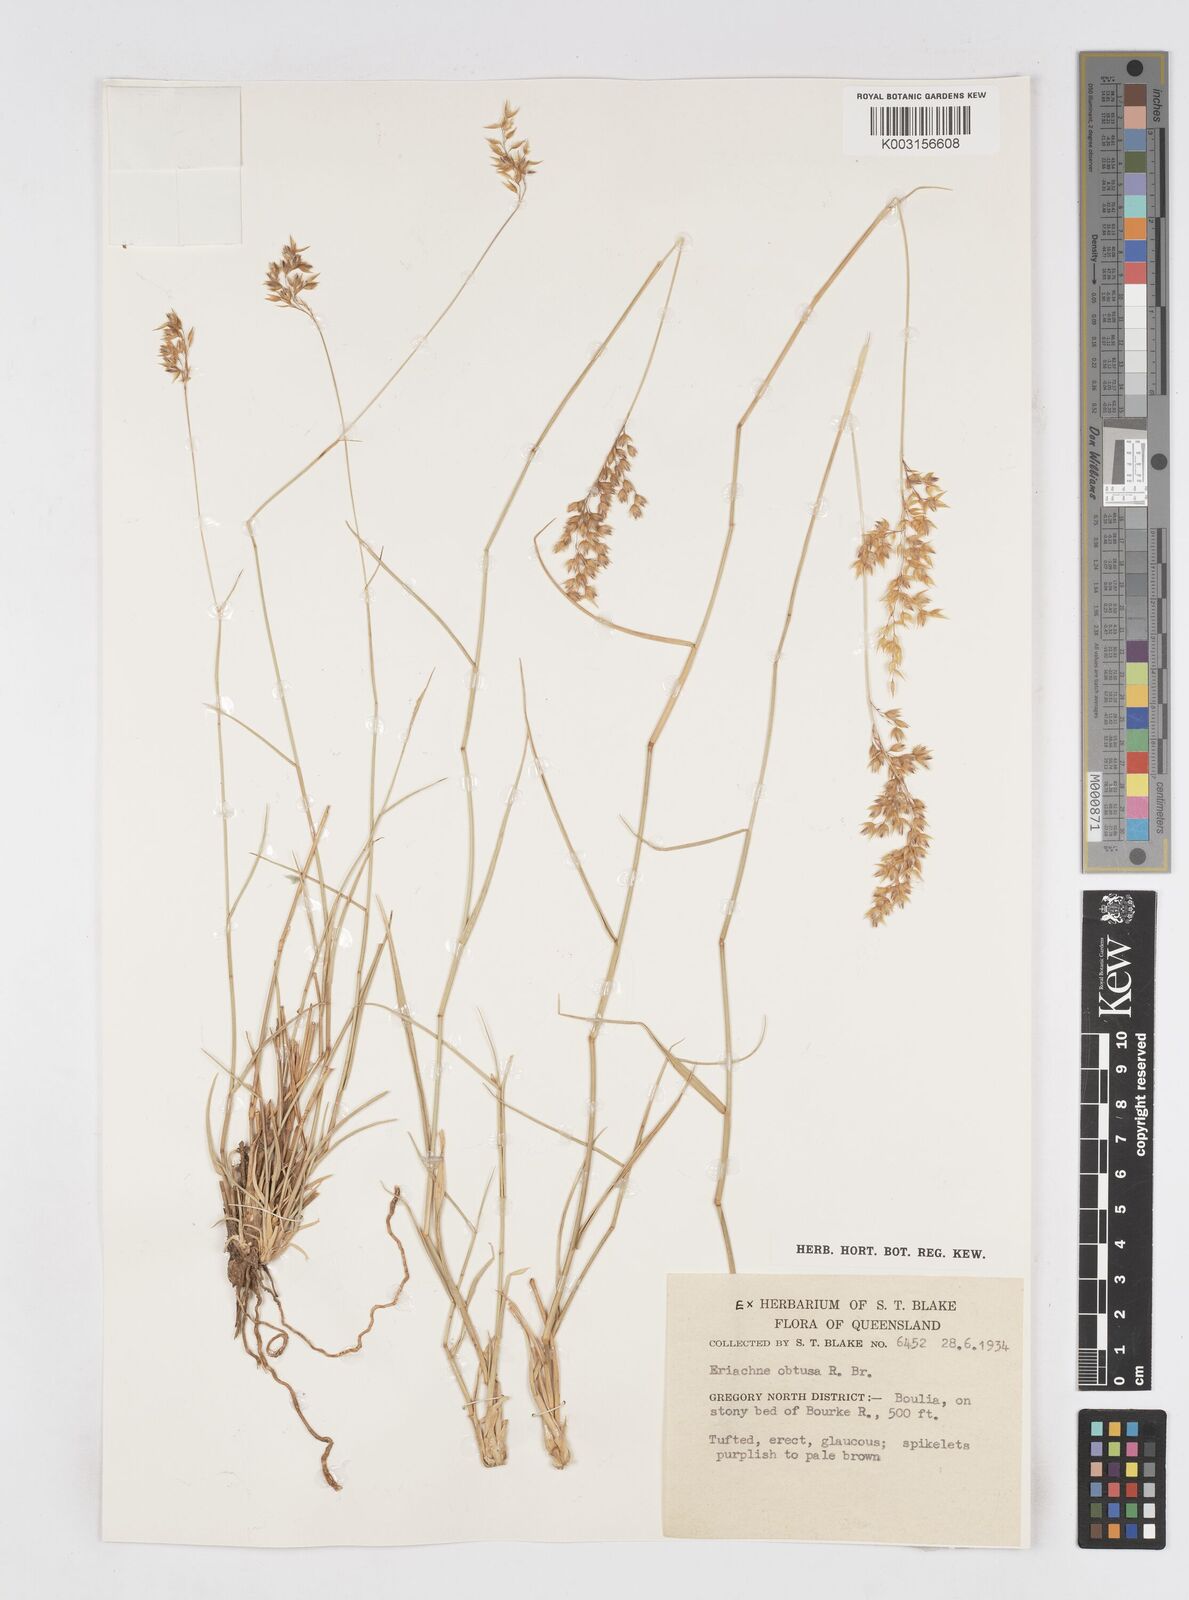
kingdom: Plantae
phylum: Tracheophyta
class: Liliopsida
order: Poales
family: Poaceae
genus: Eriachne
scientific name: Eriachne obtusa
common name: Northern wanderrie grass
